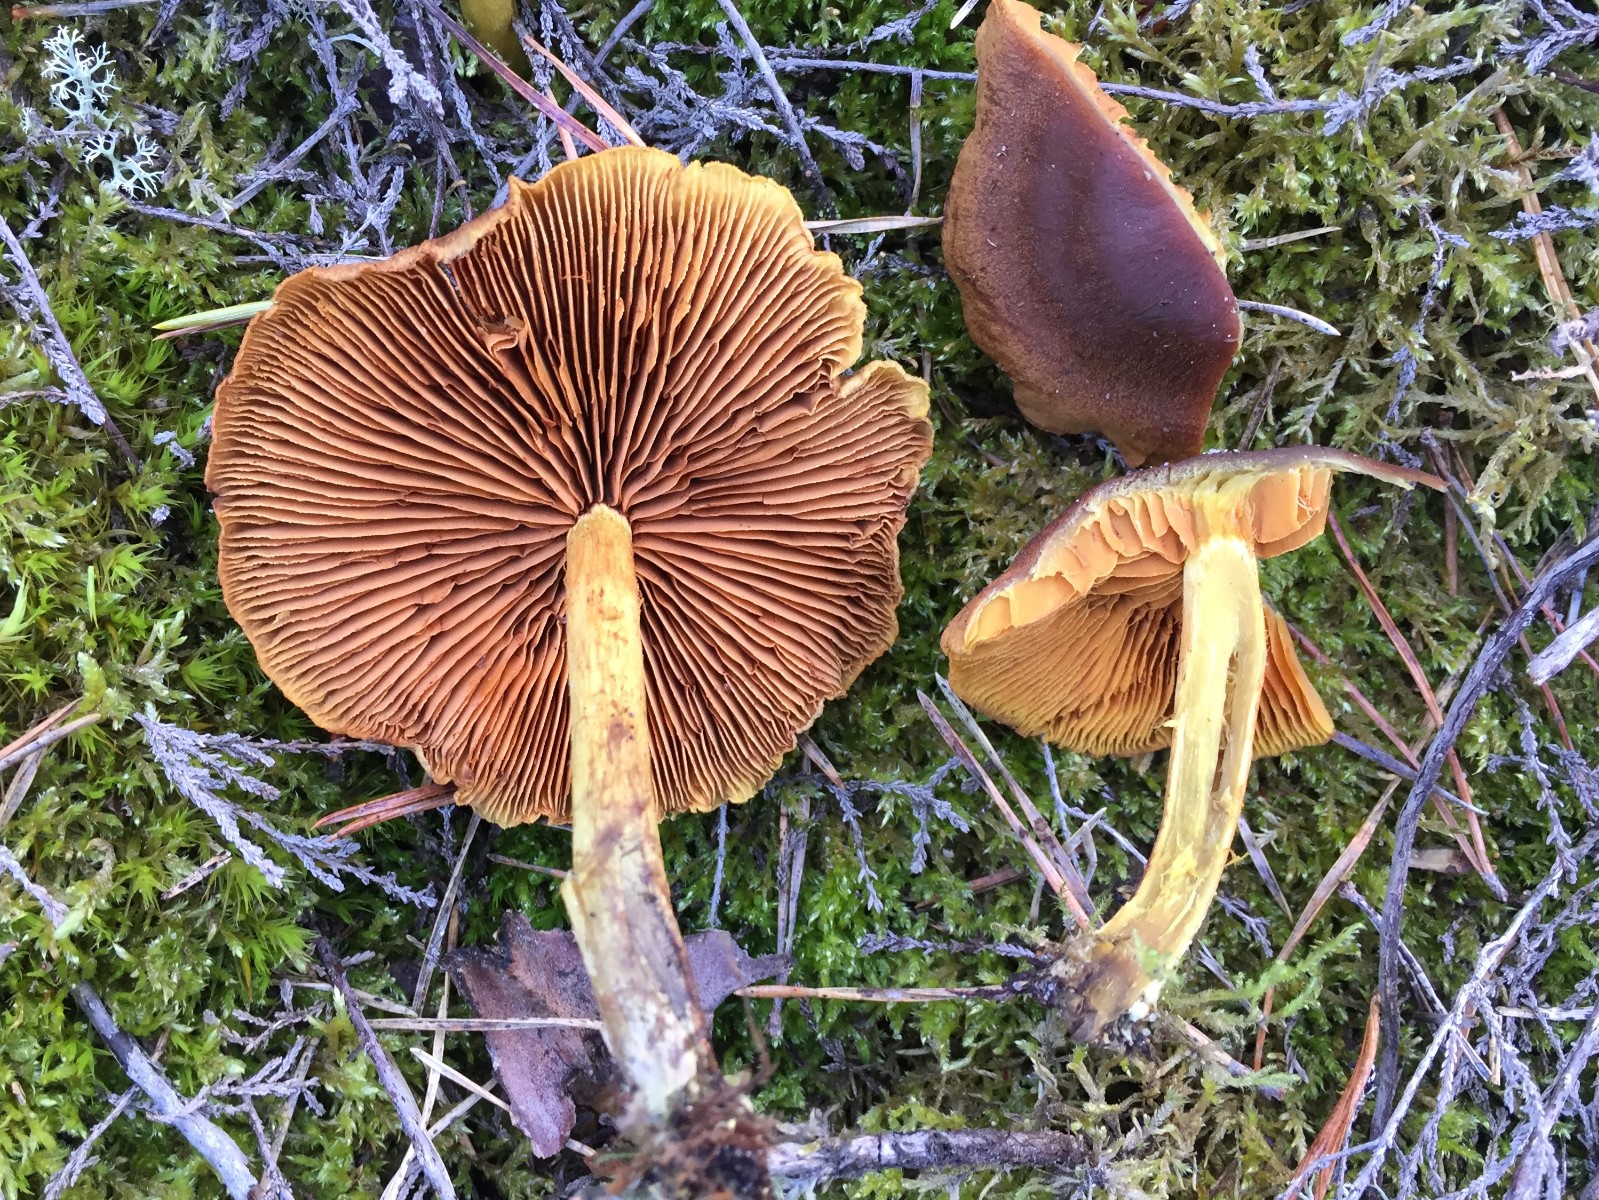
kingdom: Fungi
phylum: Basidiomycota
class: Agaricomycetes
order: Agaricales
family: Cortinariaceae
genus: Cortinarius
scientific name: Cortinarius malicorius
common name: grønkødet slørhat
